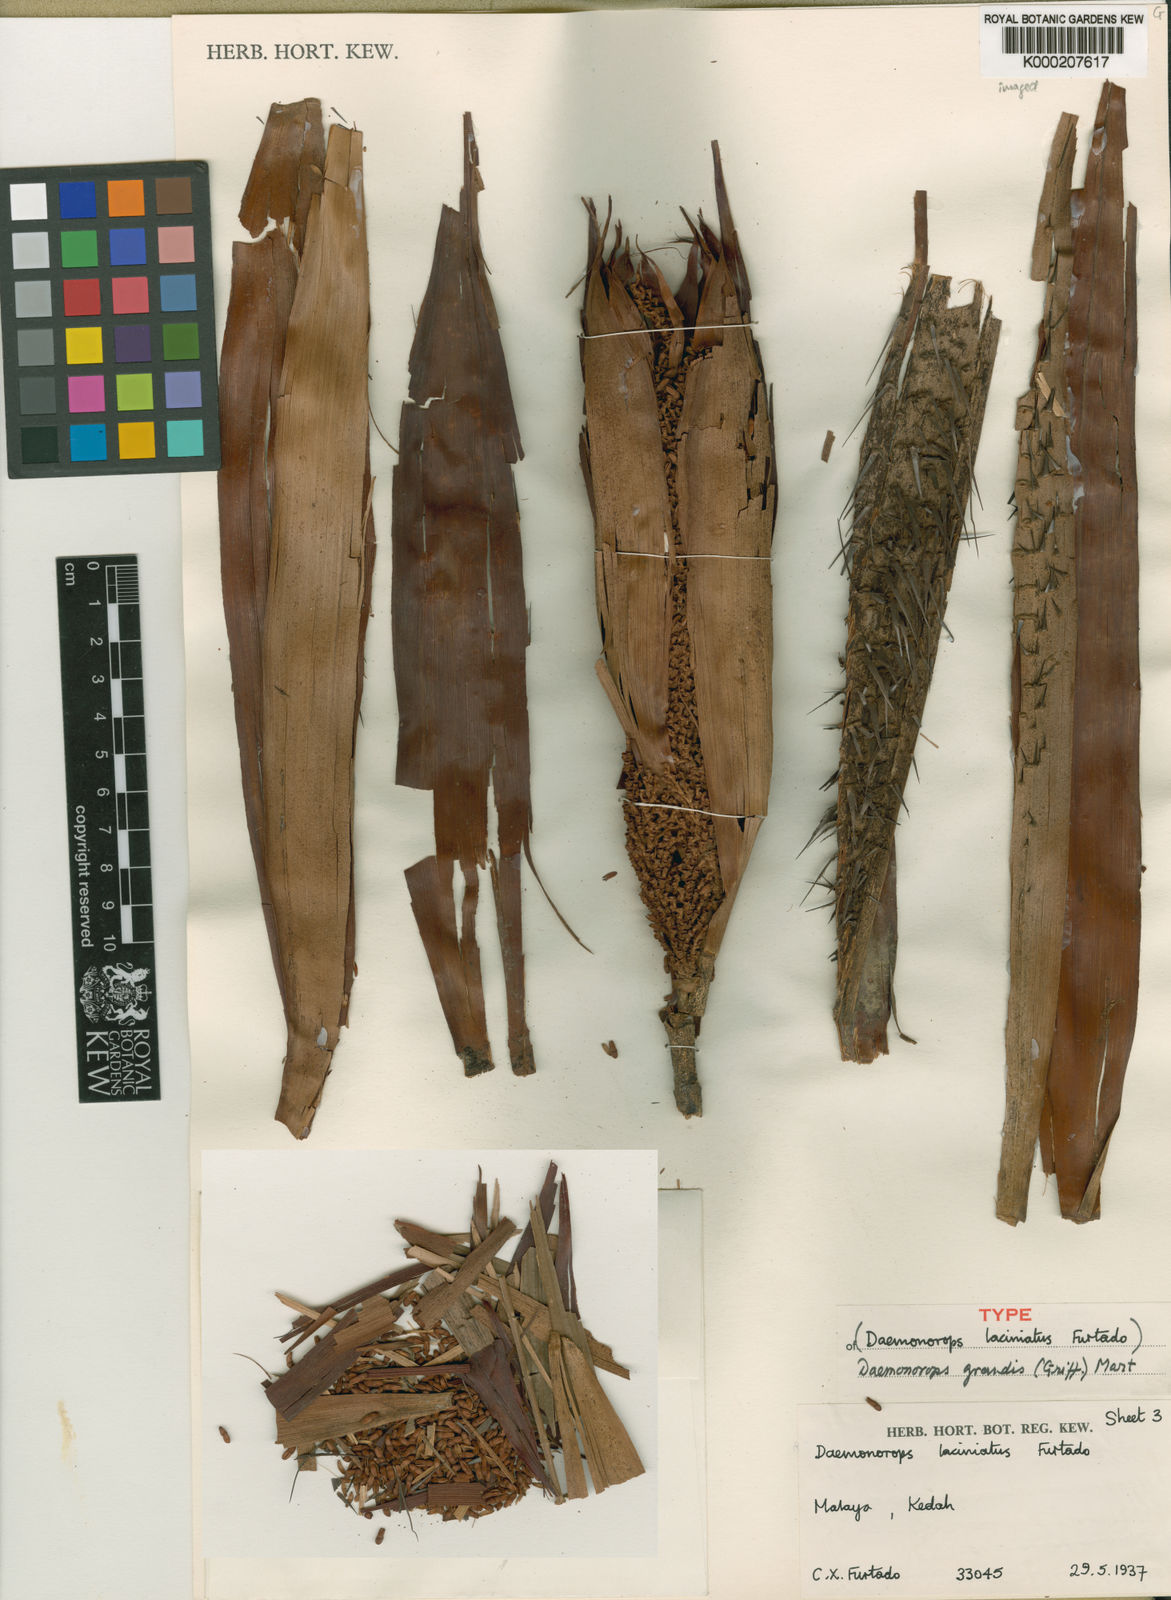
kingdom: Plantae
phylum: Tracheophyta
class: Liliopsida
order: Arecales
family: Arecaceae
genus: Calamus
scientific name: Calamus melanochaetes
